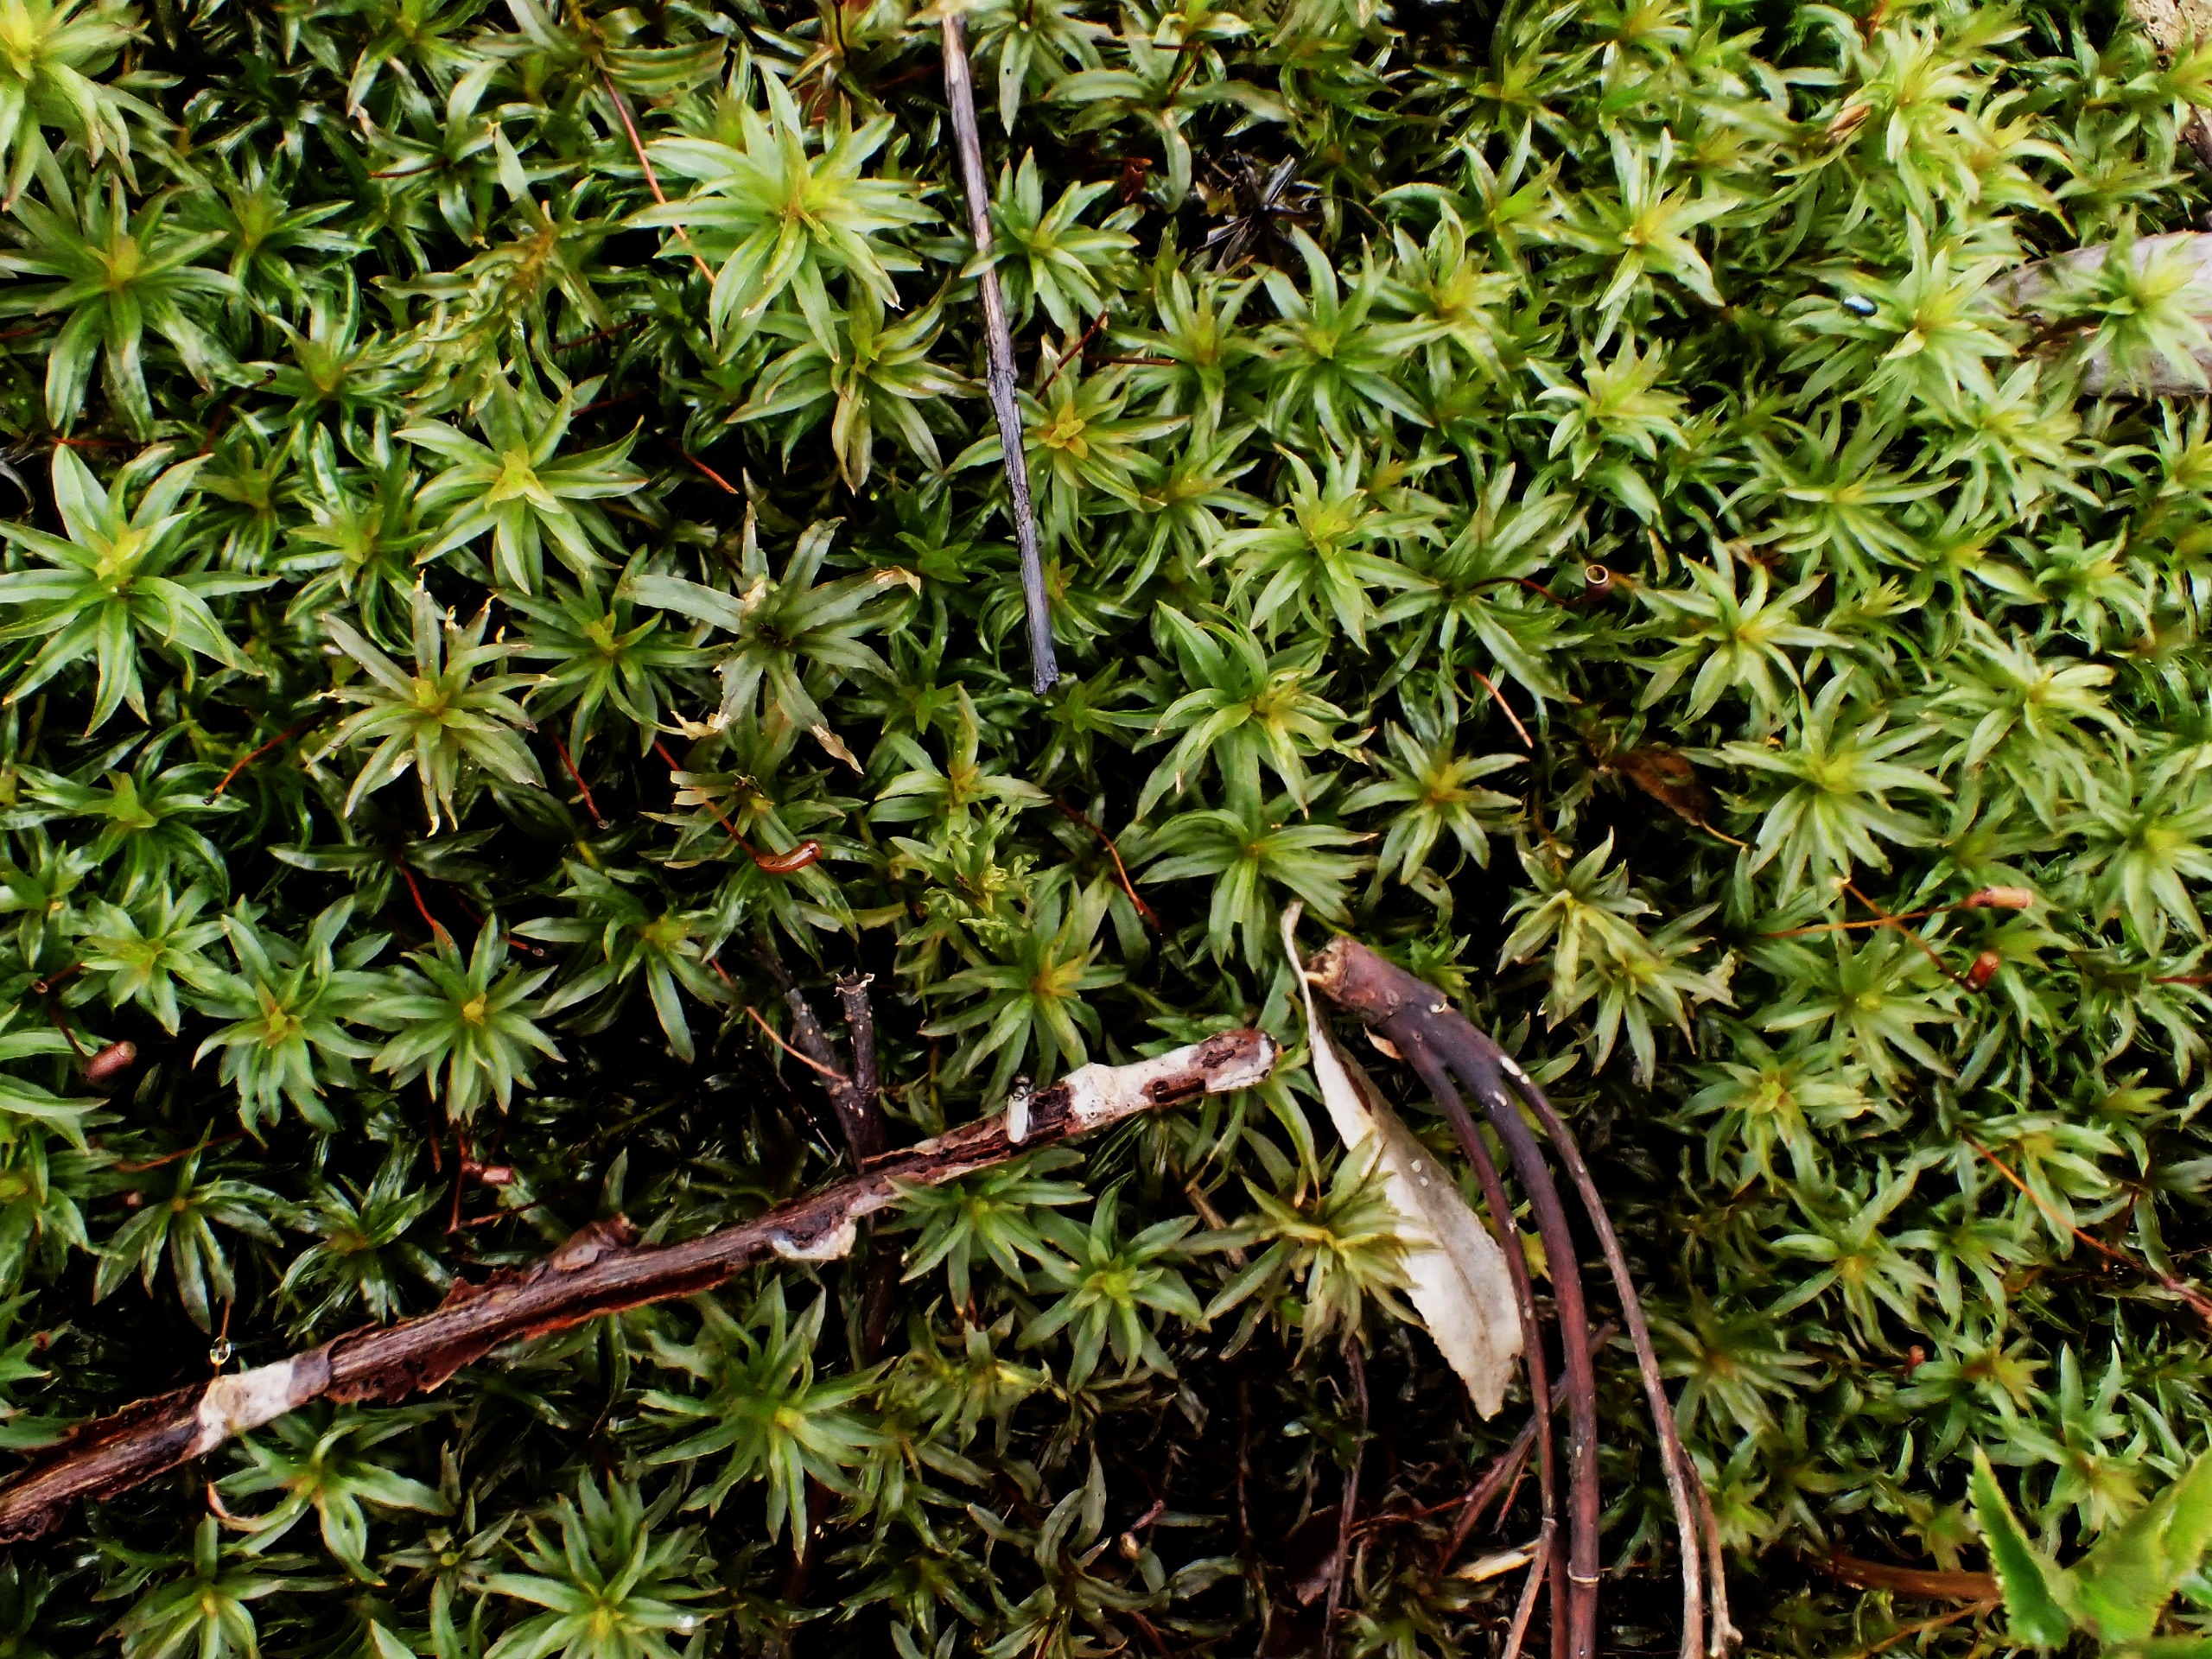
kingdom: Plantae
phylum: Bryophyta
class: Polytrichopsida
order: Polytrichales
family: Polytrichaceae
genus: Atrichum
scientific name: Atrichum undulatum
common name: Bølget katrinemos
